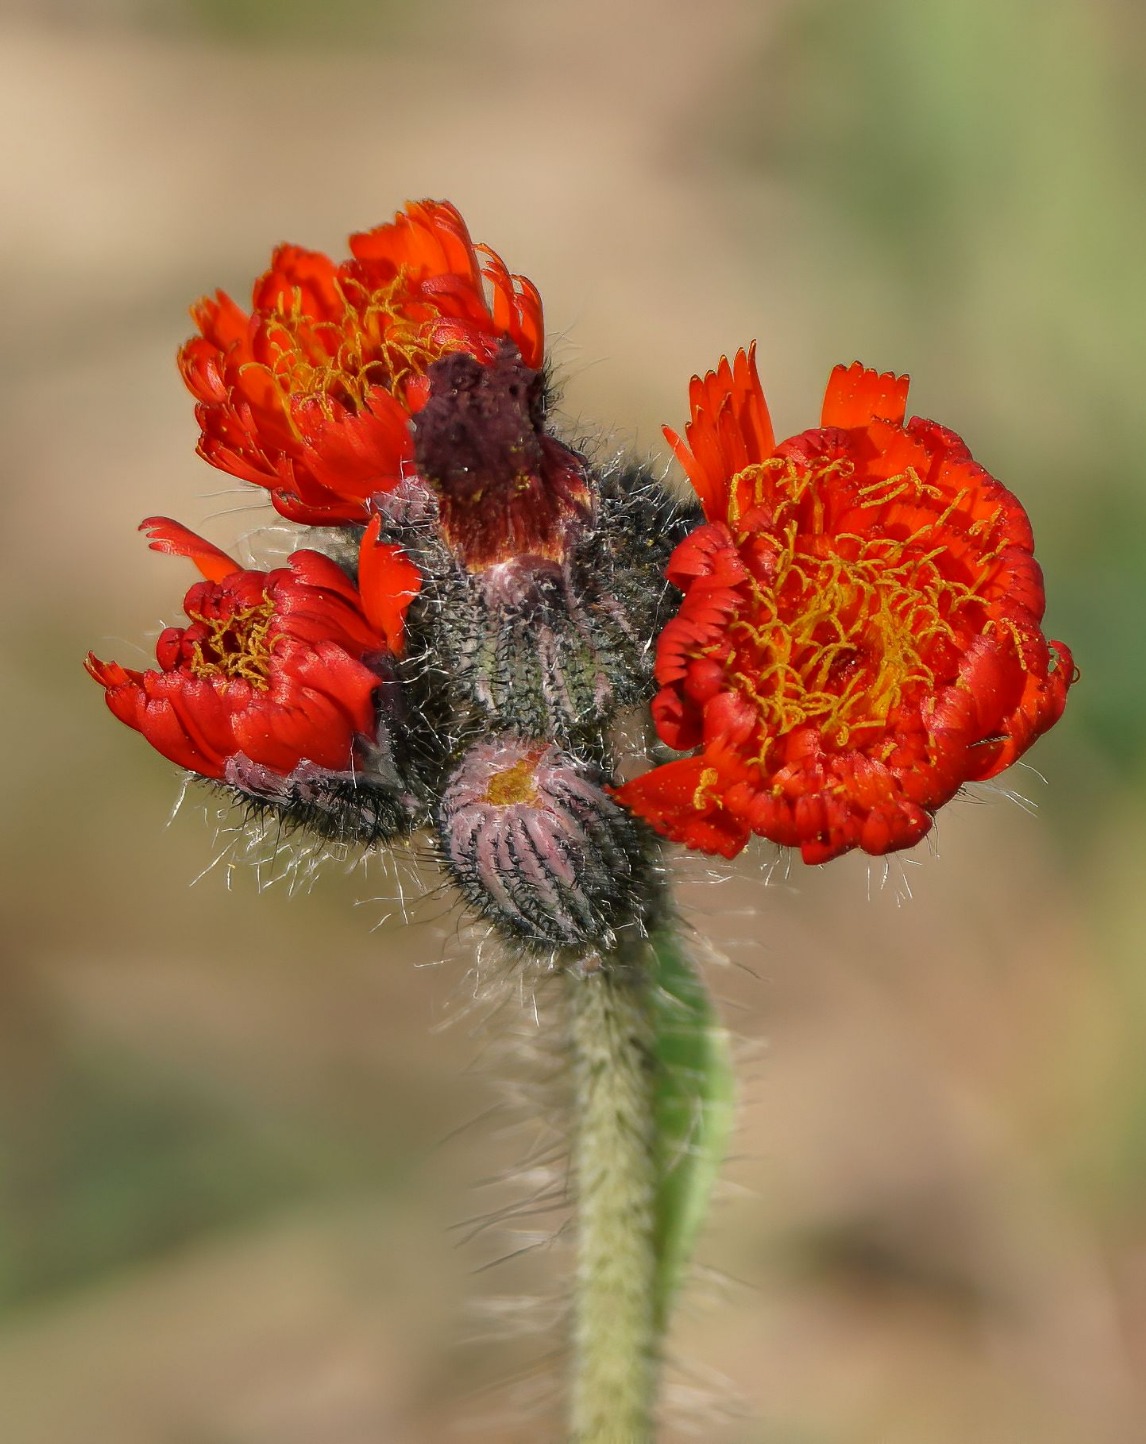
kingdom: Plantae
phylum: Tracheophyta
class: Magnoliopsida
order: Asterales
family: Asteraceae
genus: Pilosella
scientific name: Pilosella aurantiaca
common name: Pomerans-høgeurt
